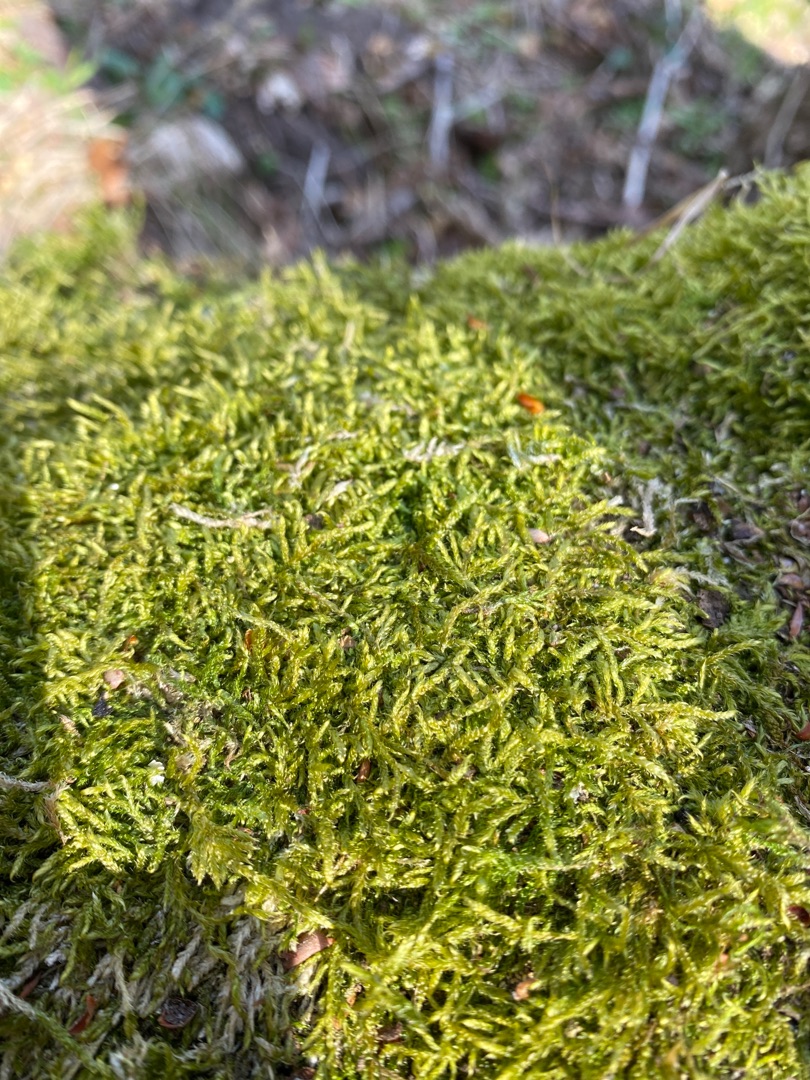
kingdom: Plantae
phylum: Bryophyta
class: Bryopsida
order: Hypnales
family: Hypnaceae
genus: Hypnum
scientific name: Hypnum cupressiforme
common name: Almindelig cypresmos
